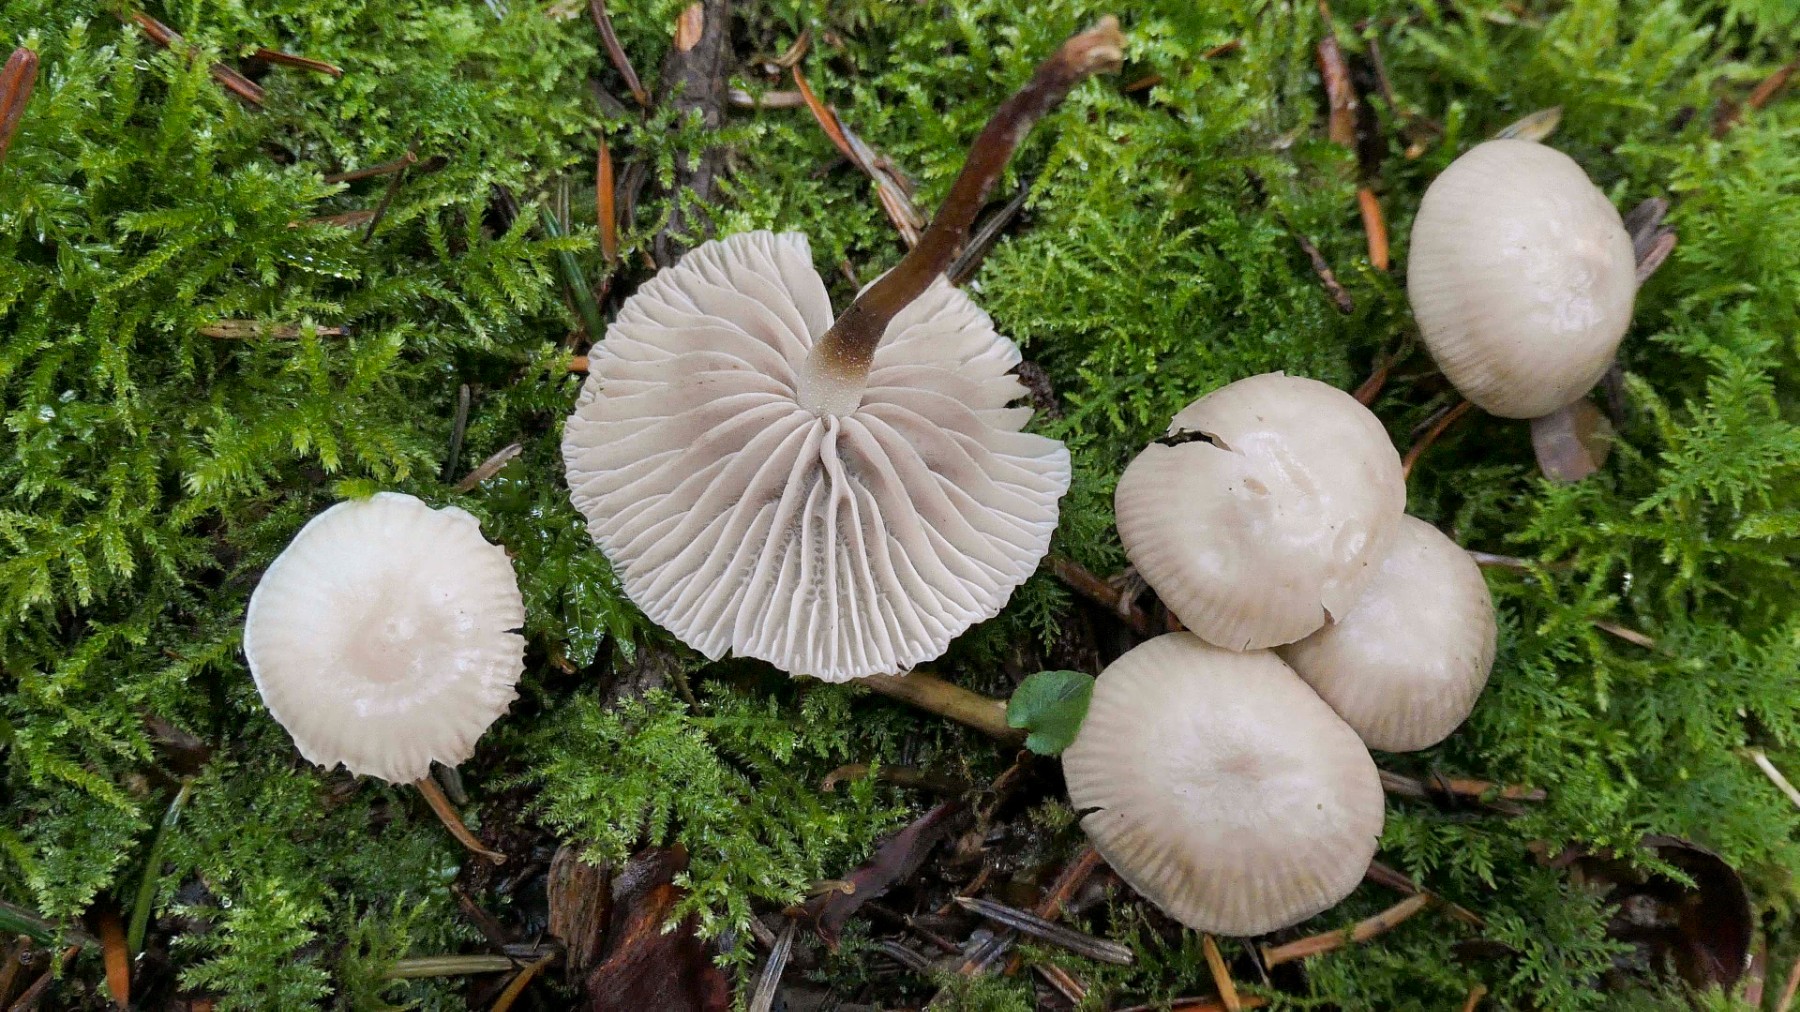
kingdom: Fungi
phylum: Basidiomycota
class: Agaricomycetes
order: Agaricales
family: Marasmiaceae
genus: Marasmius
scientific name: Marasmius wynneae
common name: hvælvet bruskhat
